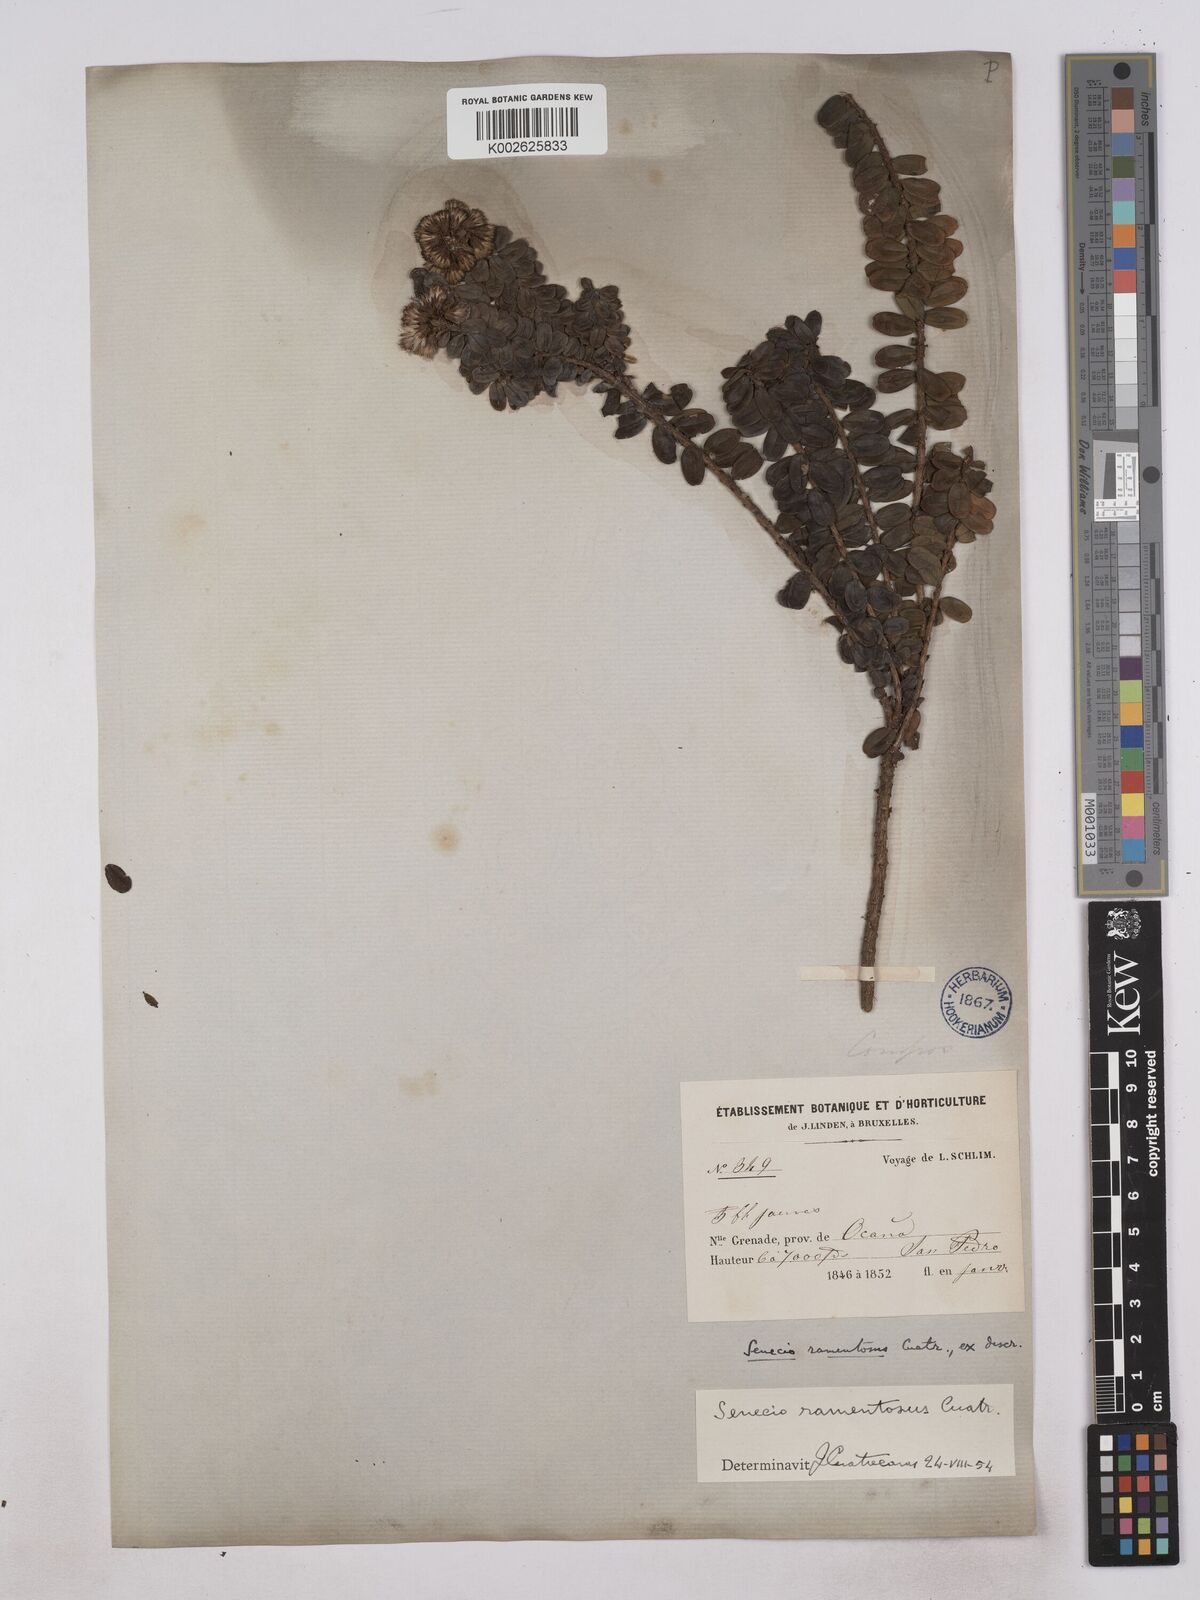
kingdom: Plantae
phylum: Tracheophyta
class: Magnoliopsida
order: Asterales
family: Asteraceae
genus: Monticalia
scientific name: Monticalia
